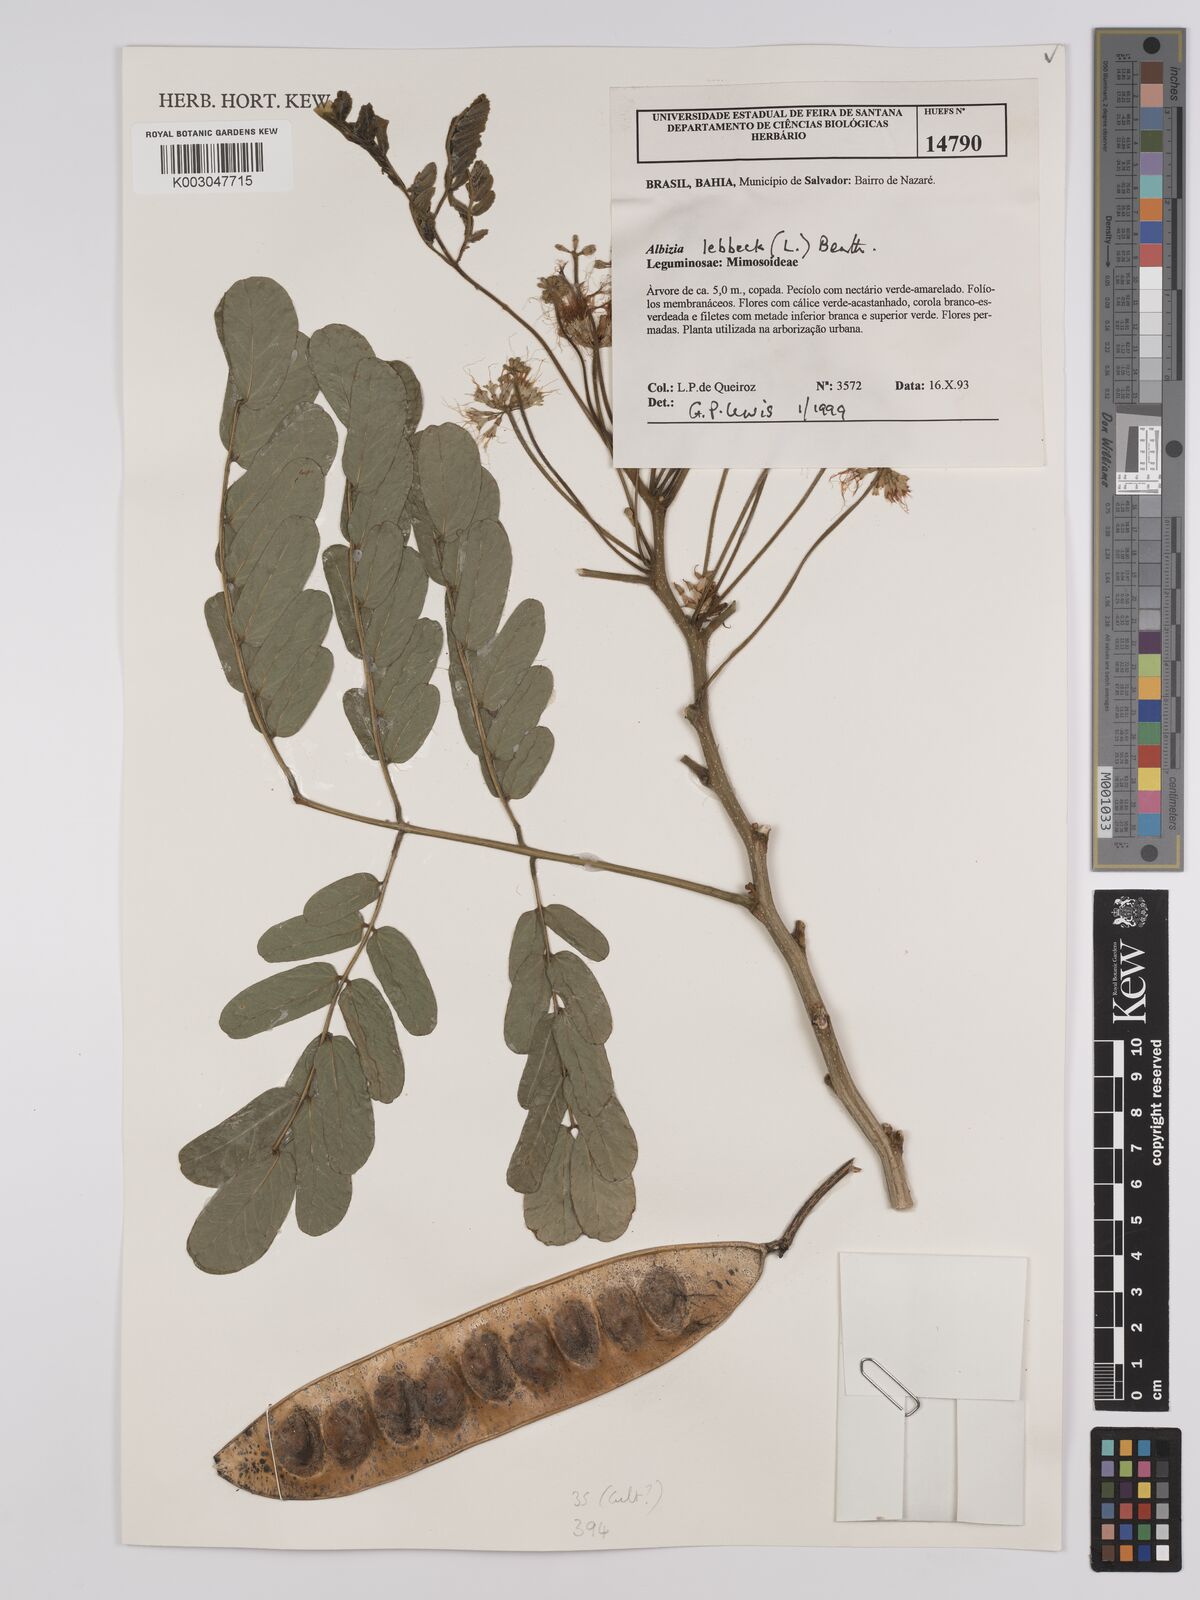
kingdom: Plantae
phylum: Tracheophyta
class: Magnoliopsida
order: Fabales
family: Fabaceae
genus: Albizia
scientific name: Albizia lebbeck
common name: Woman's tongue
